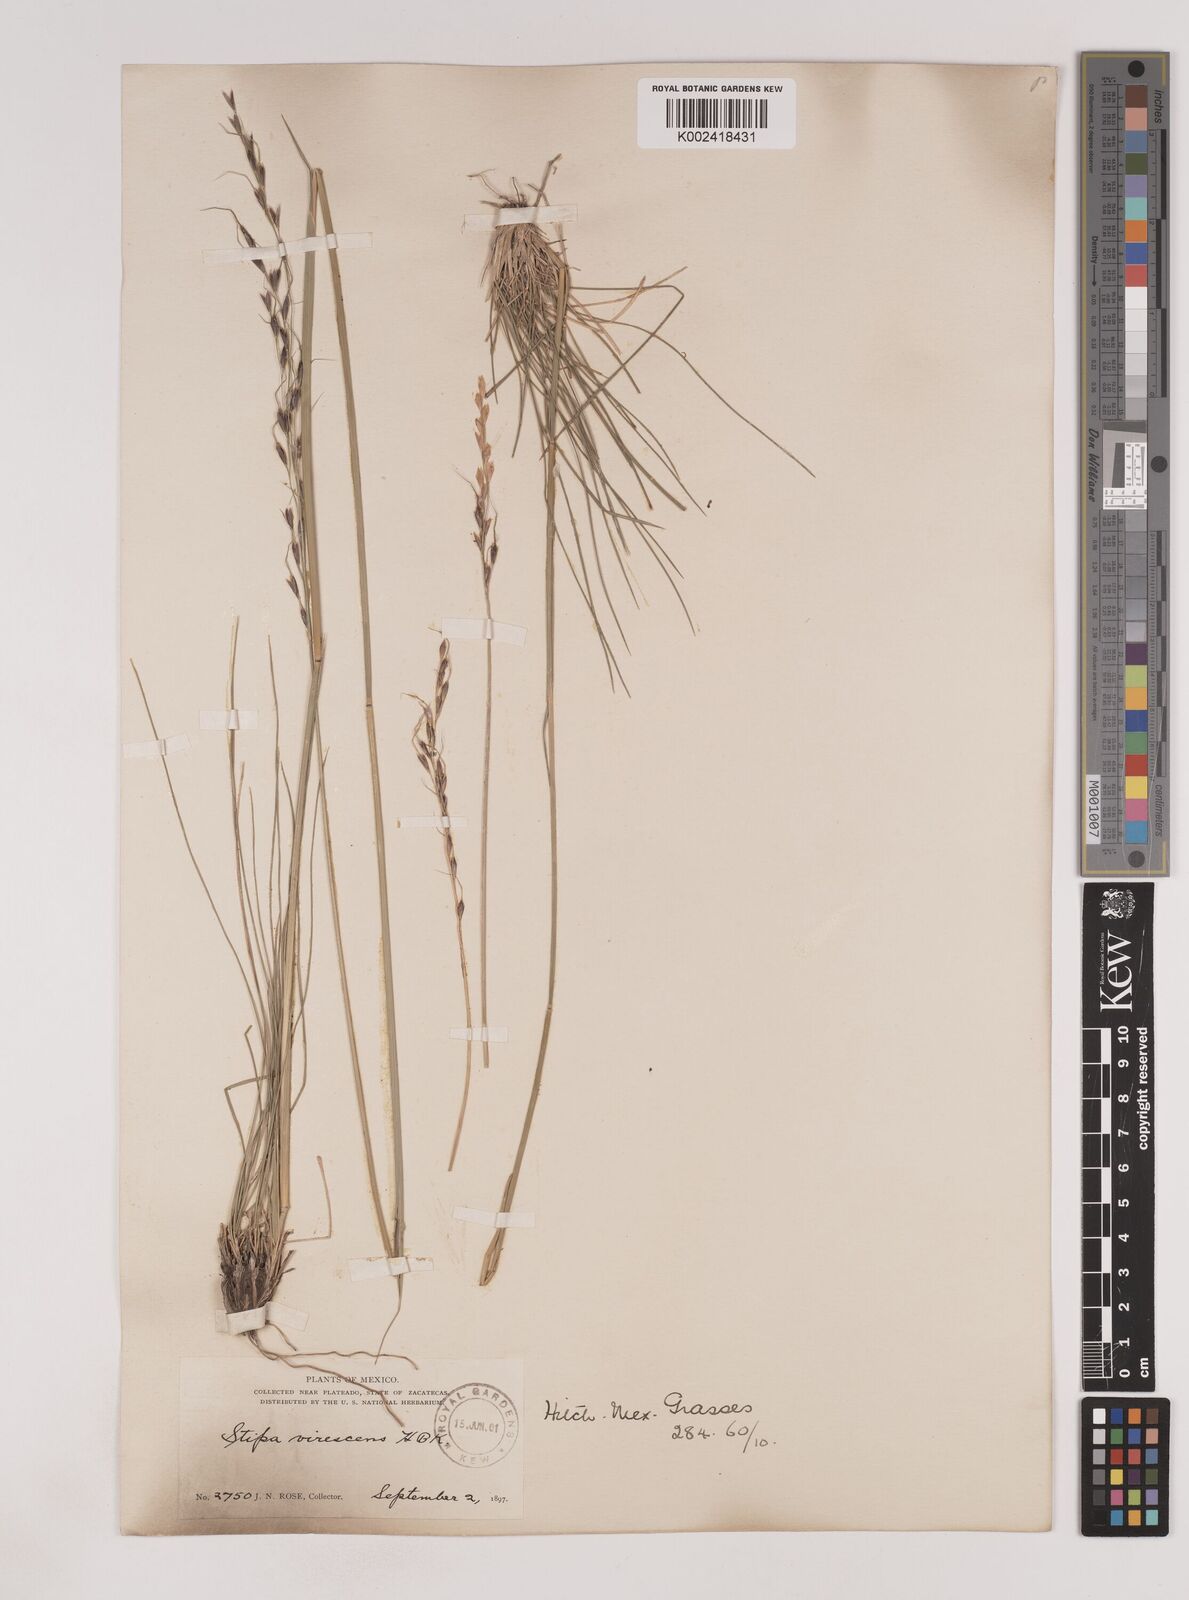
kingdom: Plantae
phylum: Tracheophyta
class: Liliopsida
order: Poales
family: Poaceae
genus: Piptochaetium
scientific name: Piptochaetium virescens
